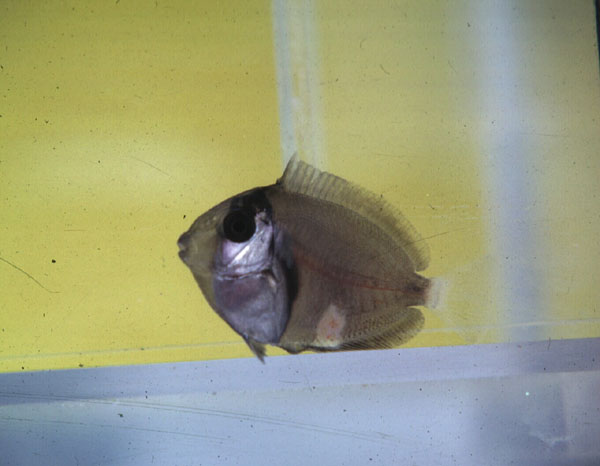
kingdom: Animalia
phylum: Chordata
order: Perciformes
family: Acanthuridae
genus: Acanthurus
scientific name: Acanthurus triostegus
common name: Convict surgeonfish
